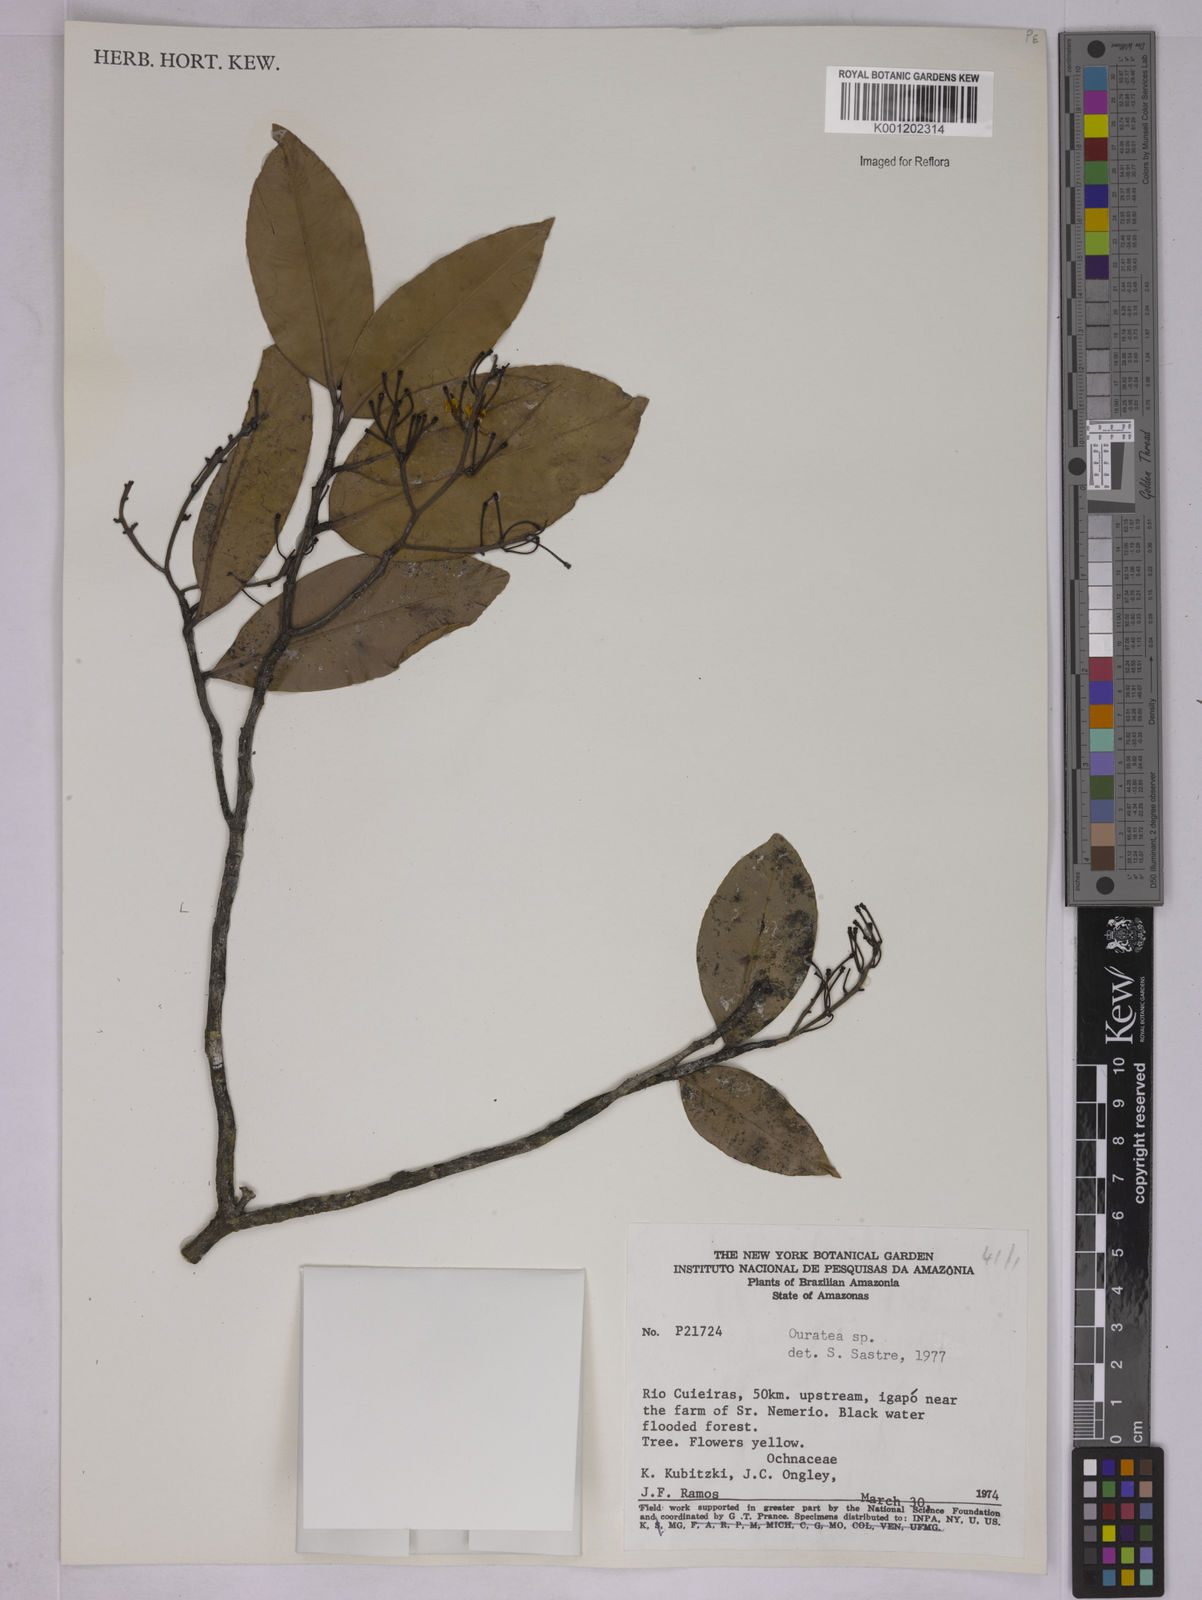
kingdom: Plantae
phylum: Tracheophyta
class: Magnoliopsida
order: Malpighiales
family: Ochnaceae
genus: Ouratea
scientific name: Ouratea
